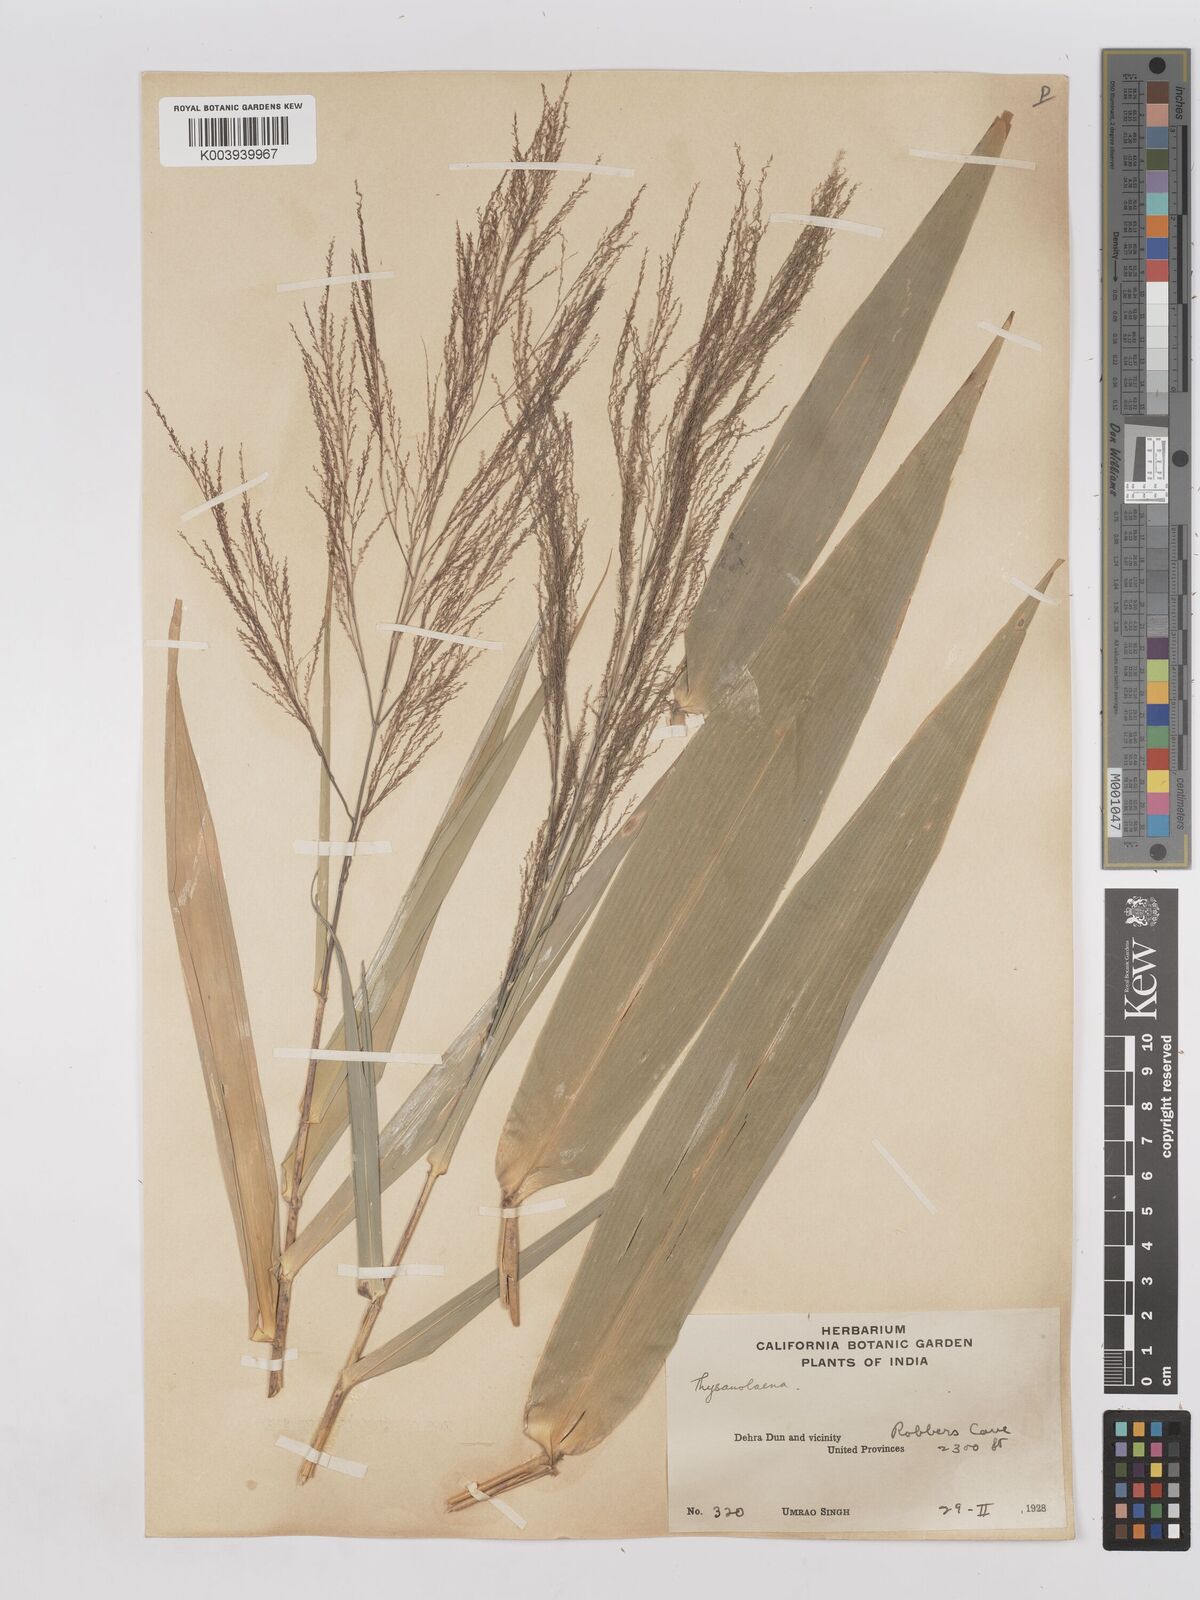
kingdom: Plantae
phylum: Tracheophyta
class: Liliopsida
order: Poales
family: Poaceae
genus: Thysanolaena
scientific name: Thysanolaena latifolia
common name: Tiger grass
